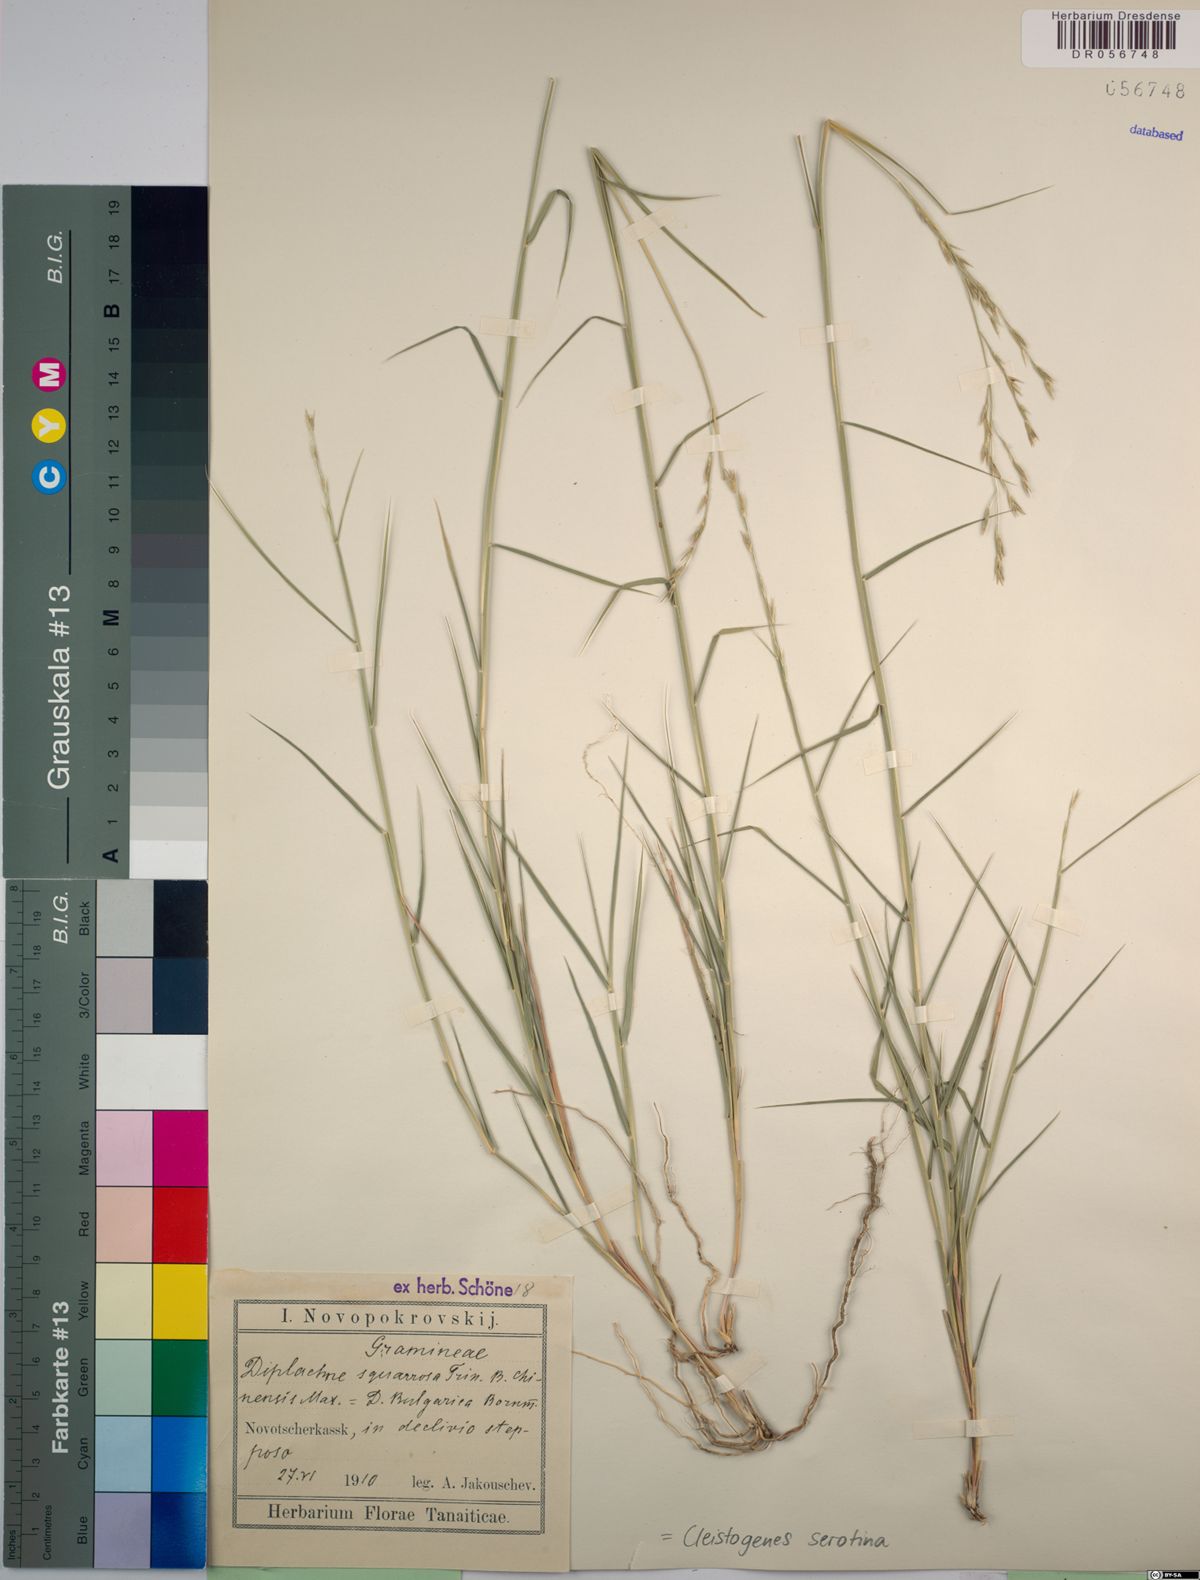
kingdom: Plantae
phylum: Tracheophyta
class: Liliopsida
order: Poales
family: Poaceae
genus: Cleistogenes
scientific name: Cleistogenes serotina
